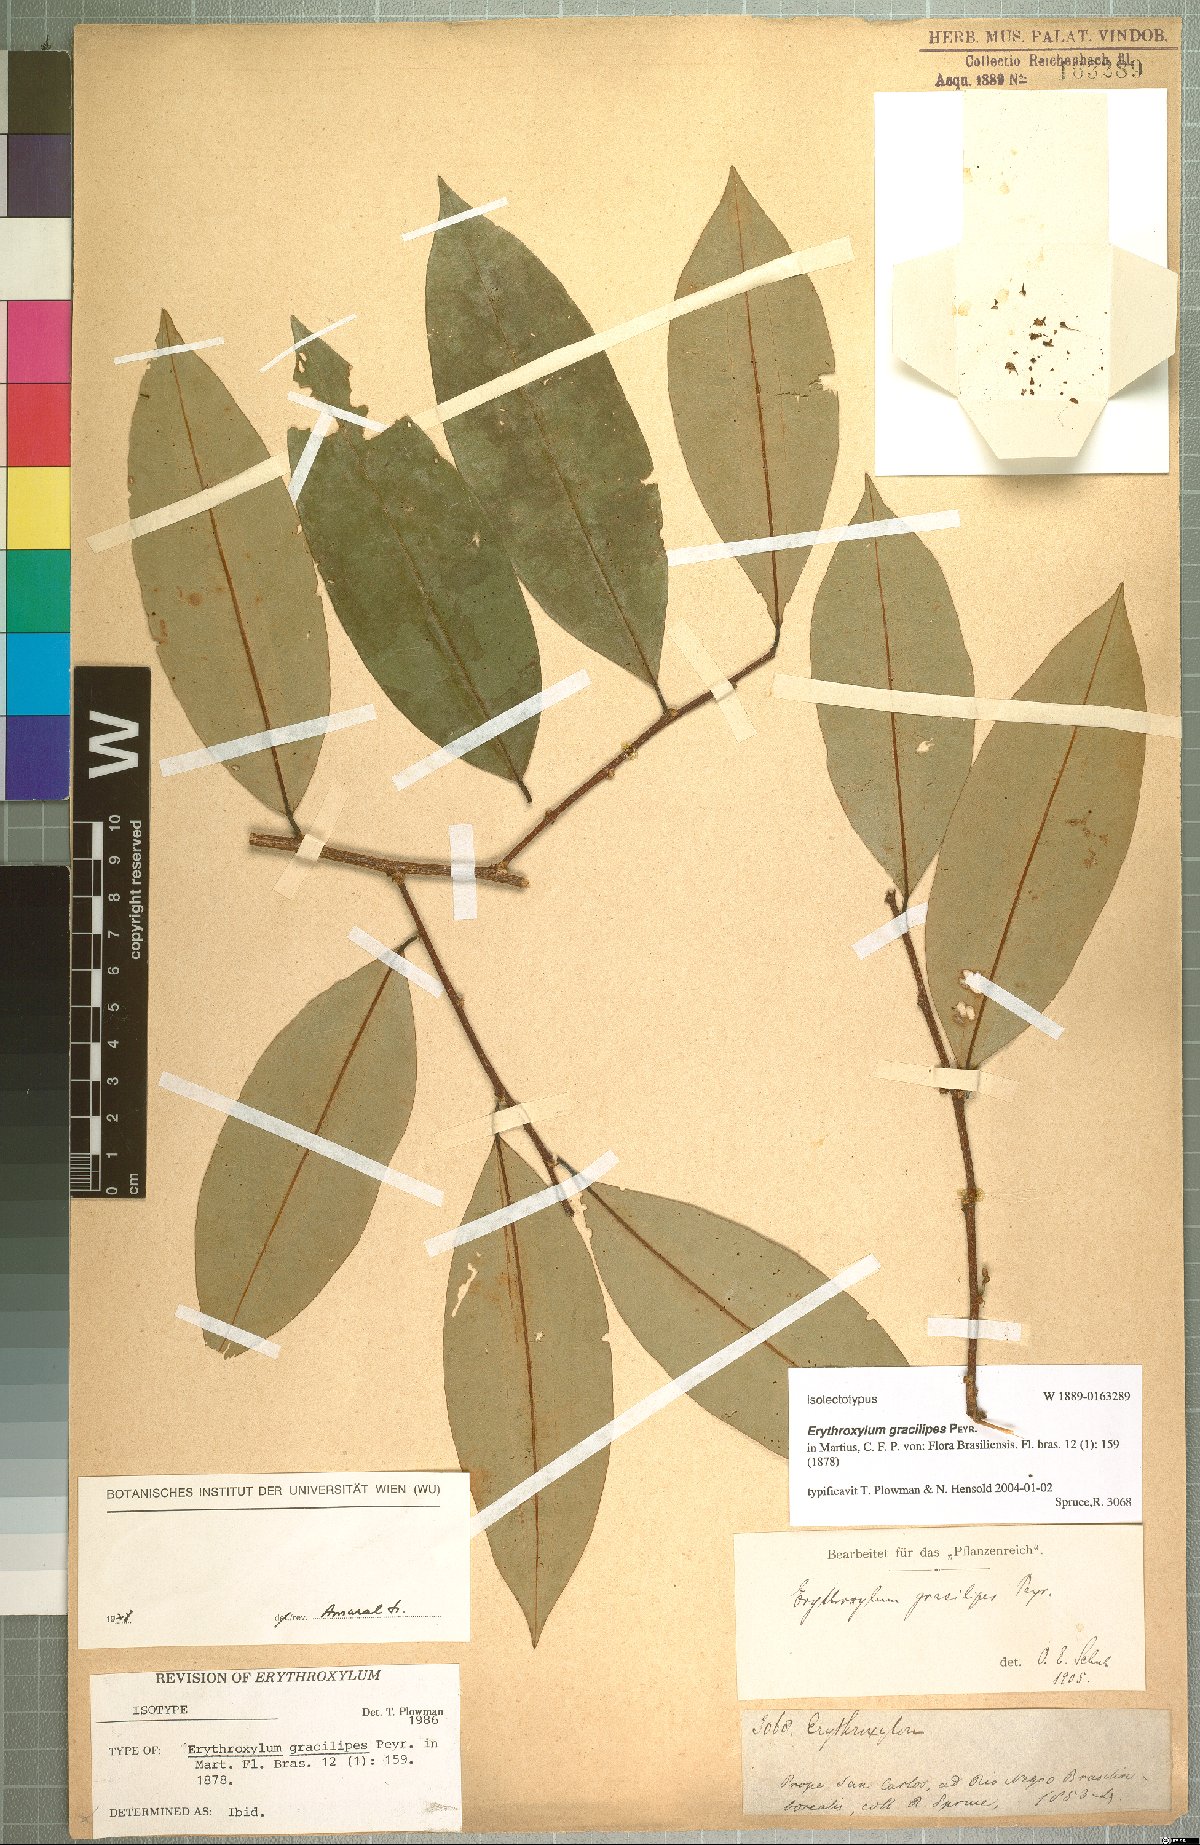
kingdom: Plantae
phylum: Tracheophyta
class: Magnoliopsida
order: Malpighiales
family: Erythroxylaceae
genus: Erythroxylum
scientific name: Erythroxylum gracilipes
